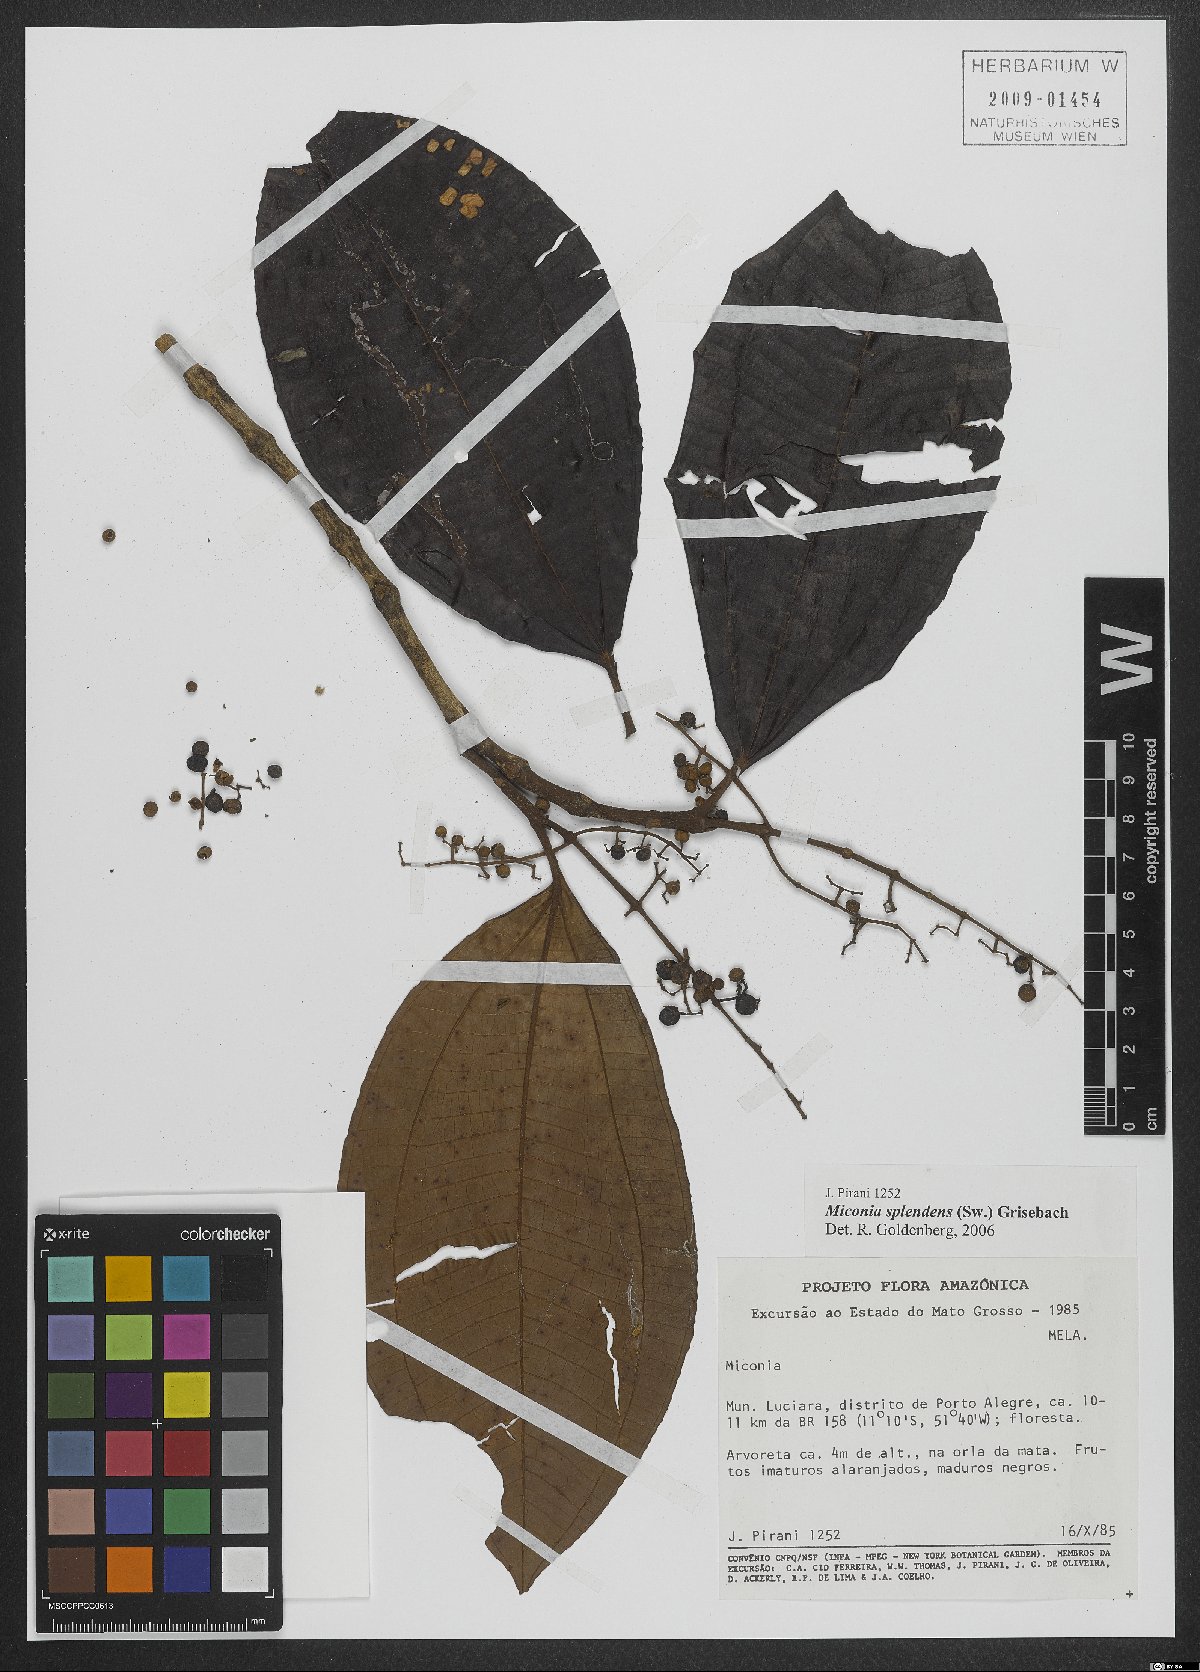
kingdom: Plantae
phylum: Tracheophyta
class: Magnoliopsida
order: Myrtales
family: Melastomataceae
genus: Miconia
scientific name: Miconia splendens
